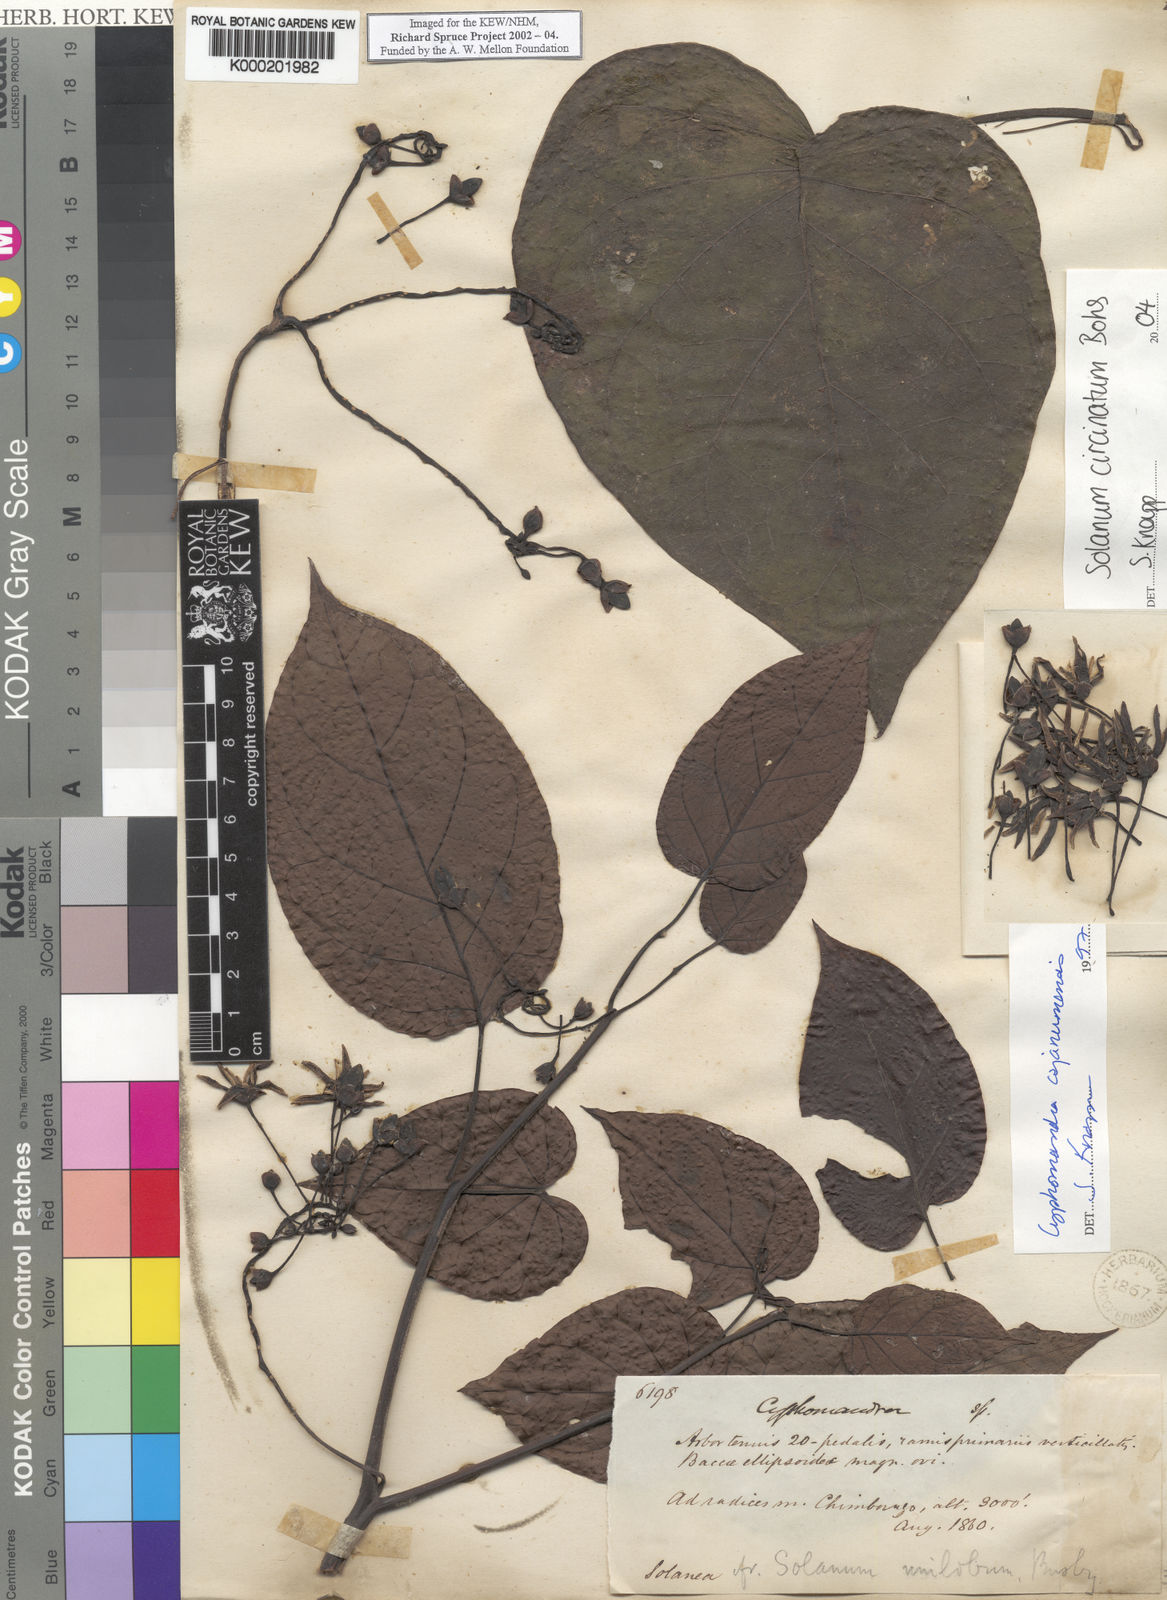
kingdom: Plantae
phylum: Tracheophyta
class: Magnoliopsida
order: Solanales
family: Solanaceae
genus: Solanum
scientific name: Solanum splendens
